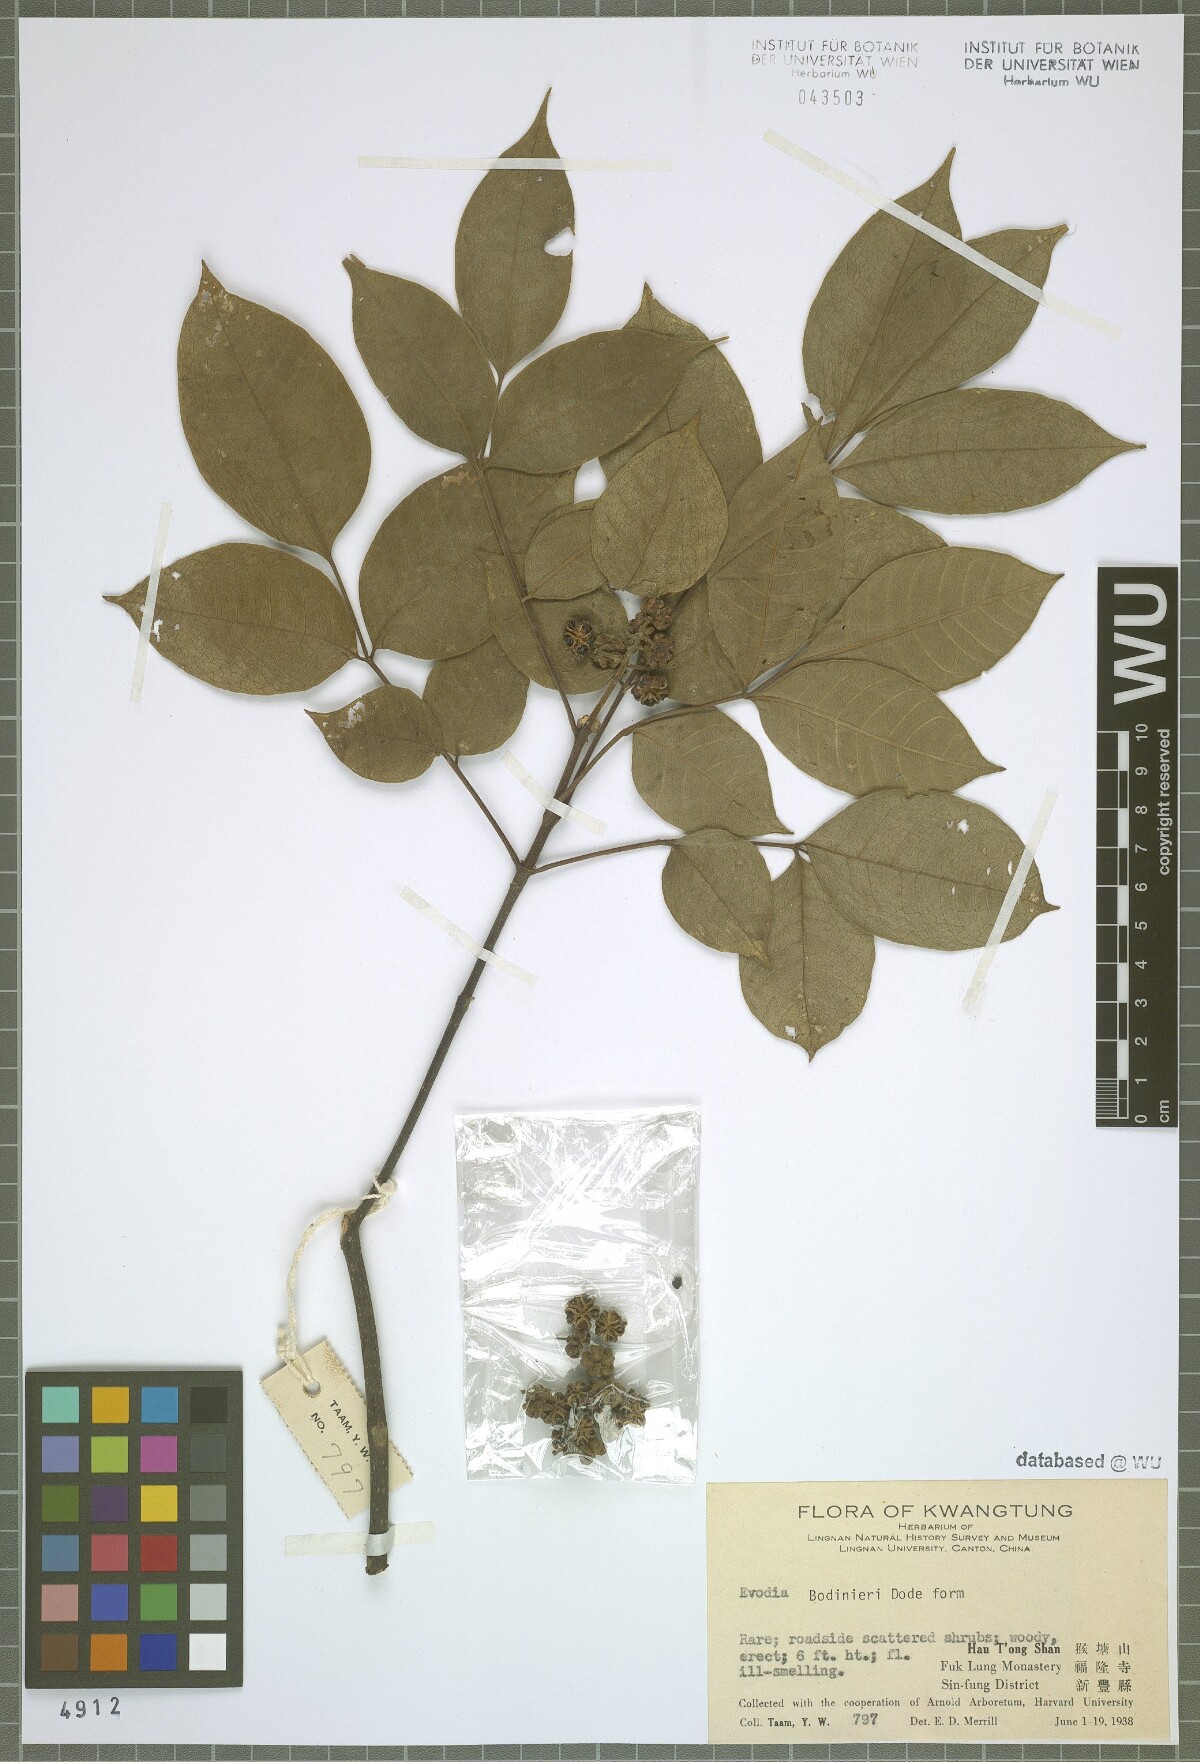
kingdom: Plantae
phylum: Tracheophyta
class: Magnoliopsida
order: Sapindales
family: Rutaceae
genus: Tetradium
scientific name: Tetradium ruticarpum
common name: Evodia
